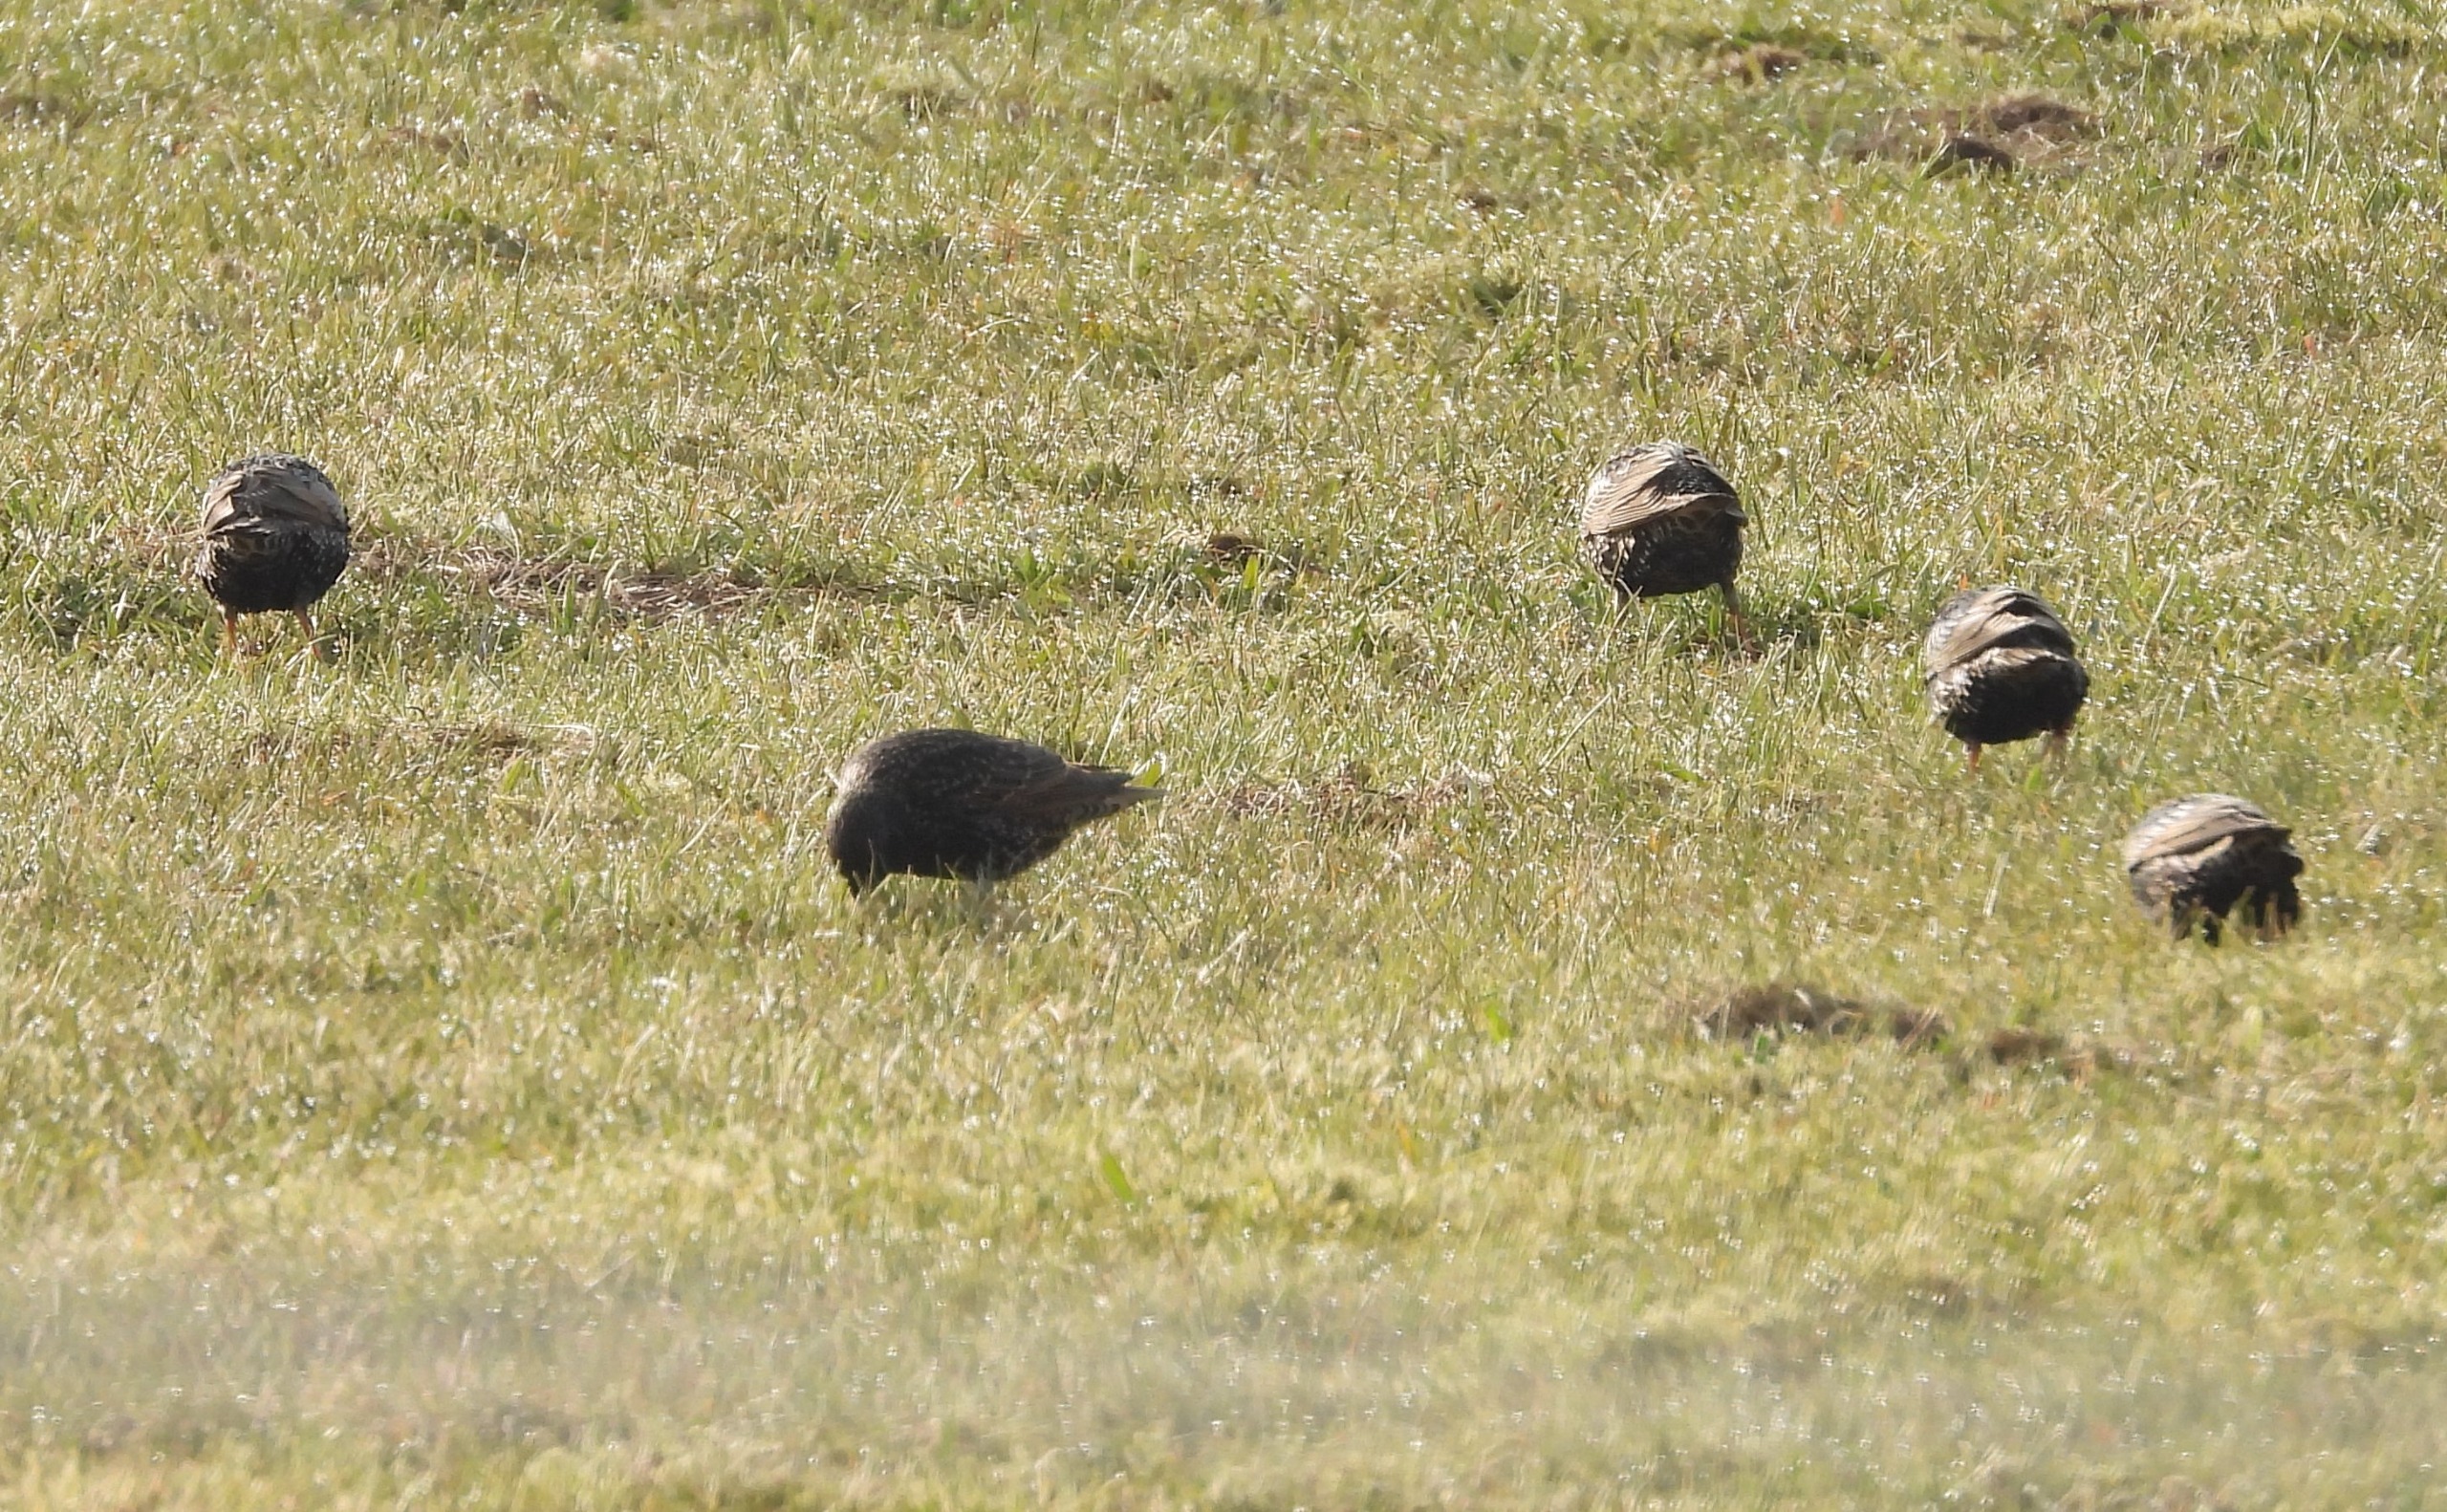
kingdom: Animalia
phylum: Chordata
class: Aves
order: Passeriformes
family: Sturnidae
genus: Sturnus
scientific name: Sturnus vulgaris
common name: Stær
